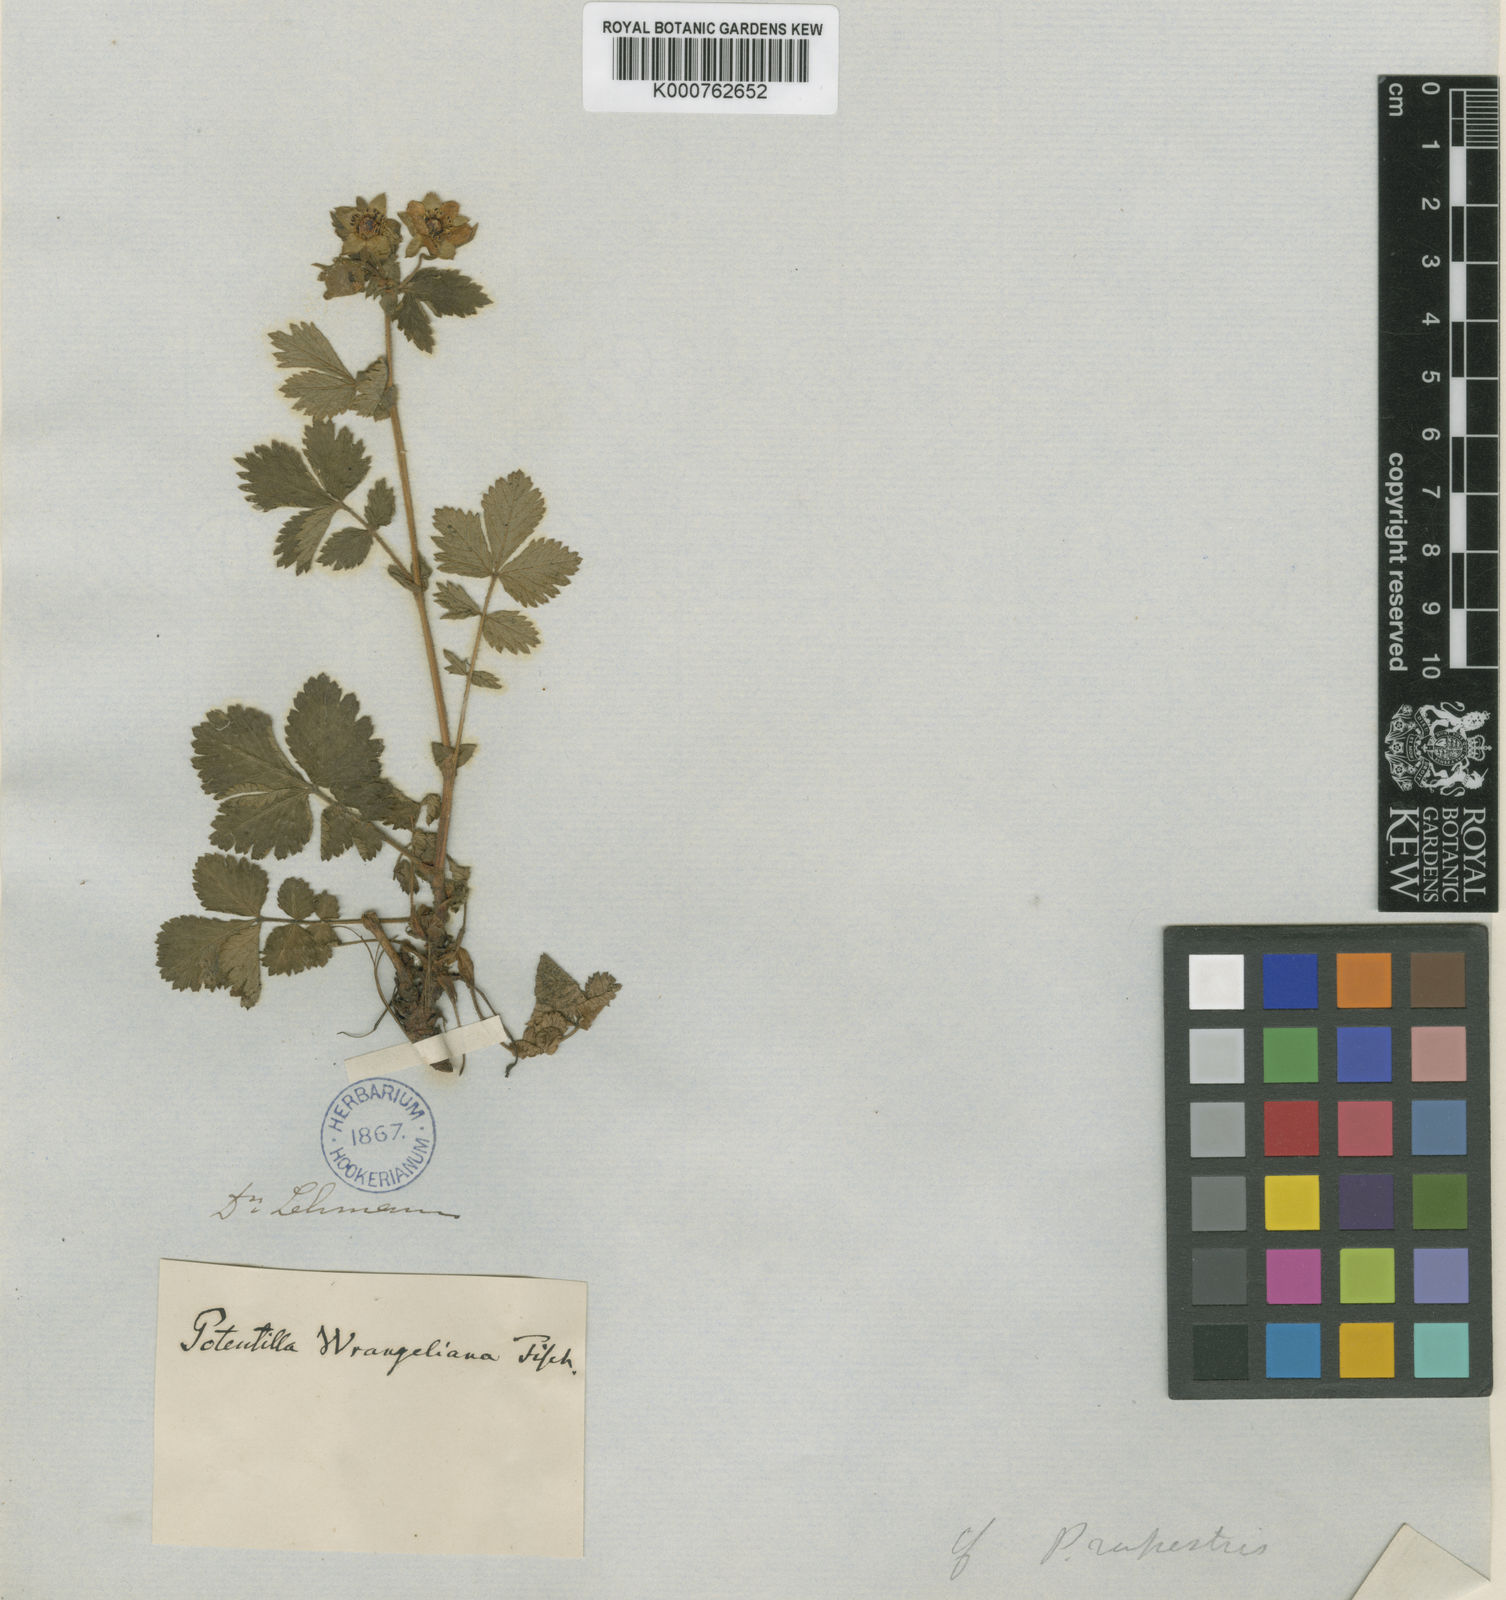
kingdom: Plantae
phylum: Tracheophyta
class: Magnoliopsida
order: Rosales
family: Rosaceae
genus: Drymocallis
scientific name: Drymocallis
